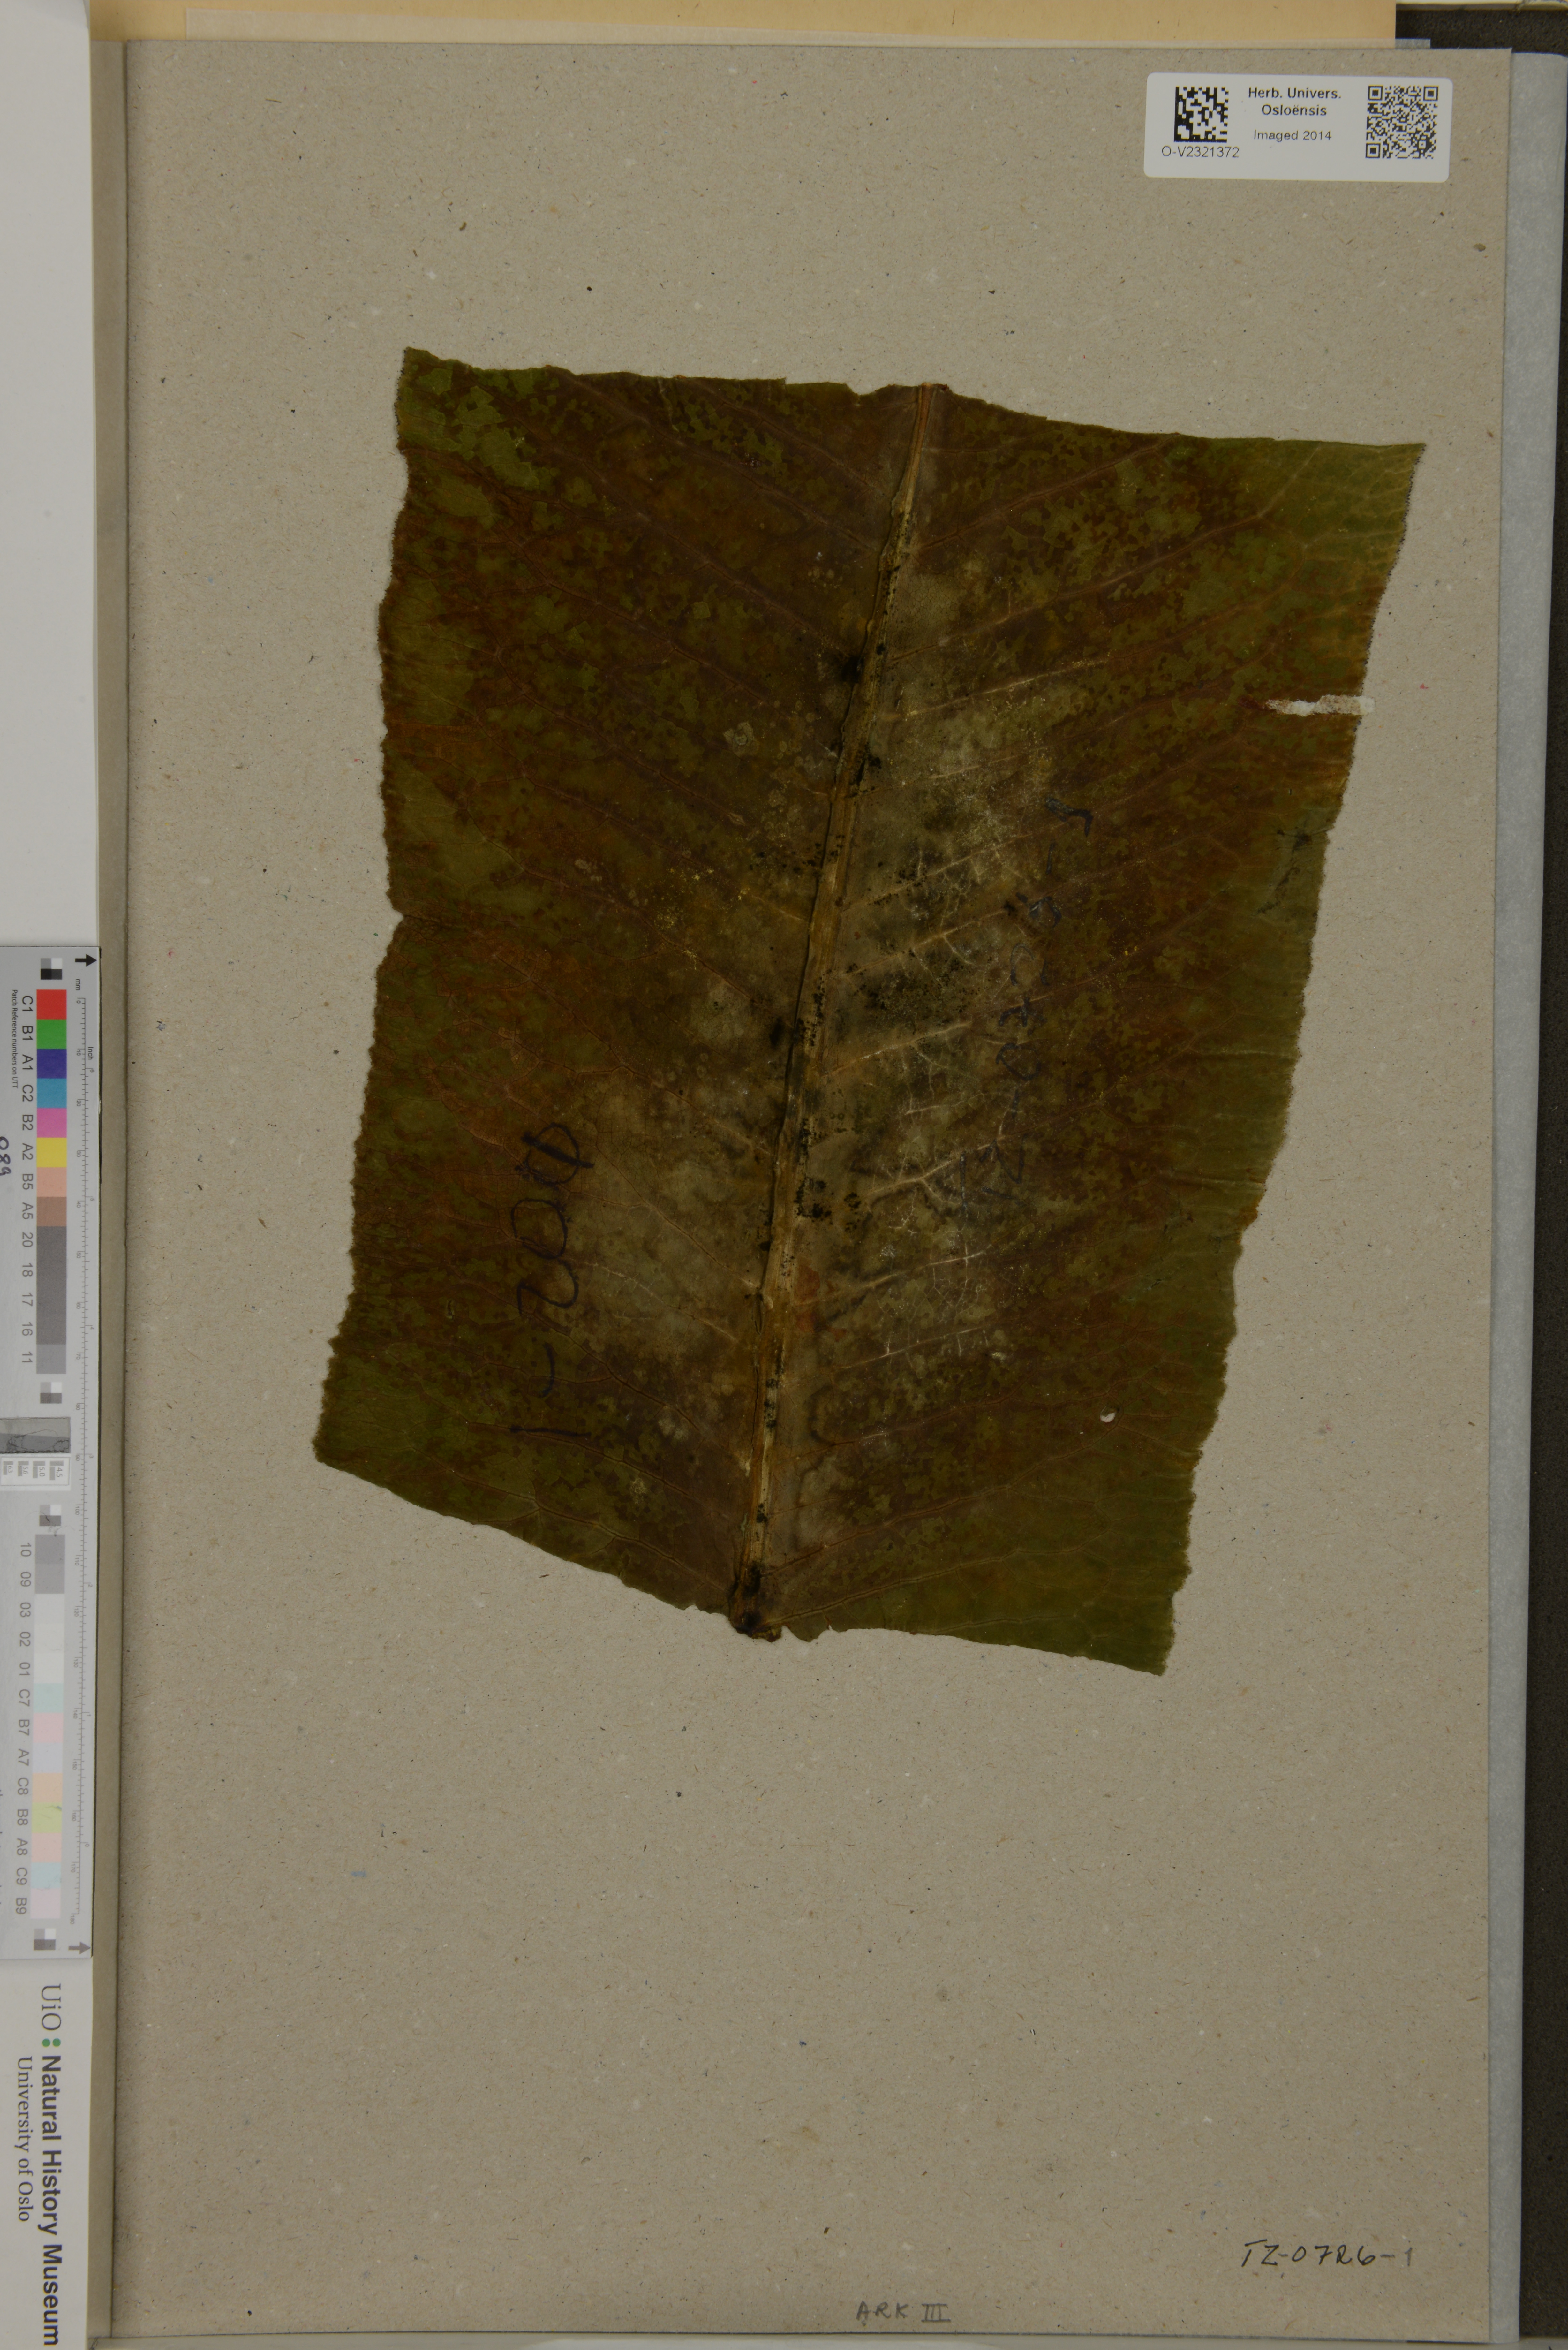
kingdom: Plantae
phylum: Tracheophyta
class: Magnoliopsida
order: Asterales
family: Campanulaceae
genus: Lobelia
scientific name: Lobelia giberroa
